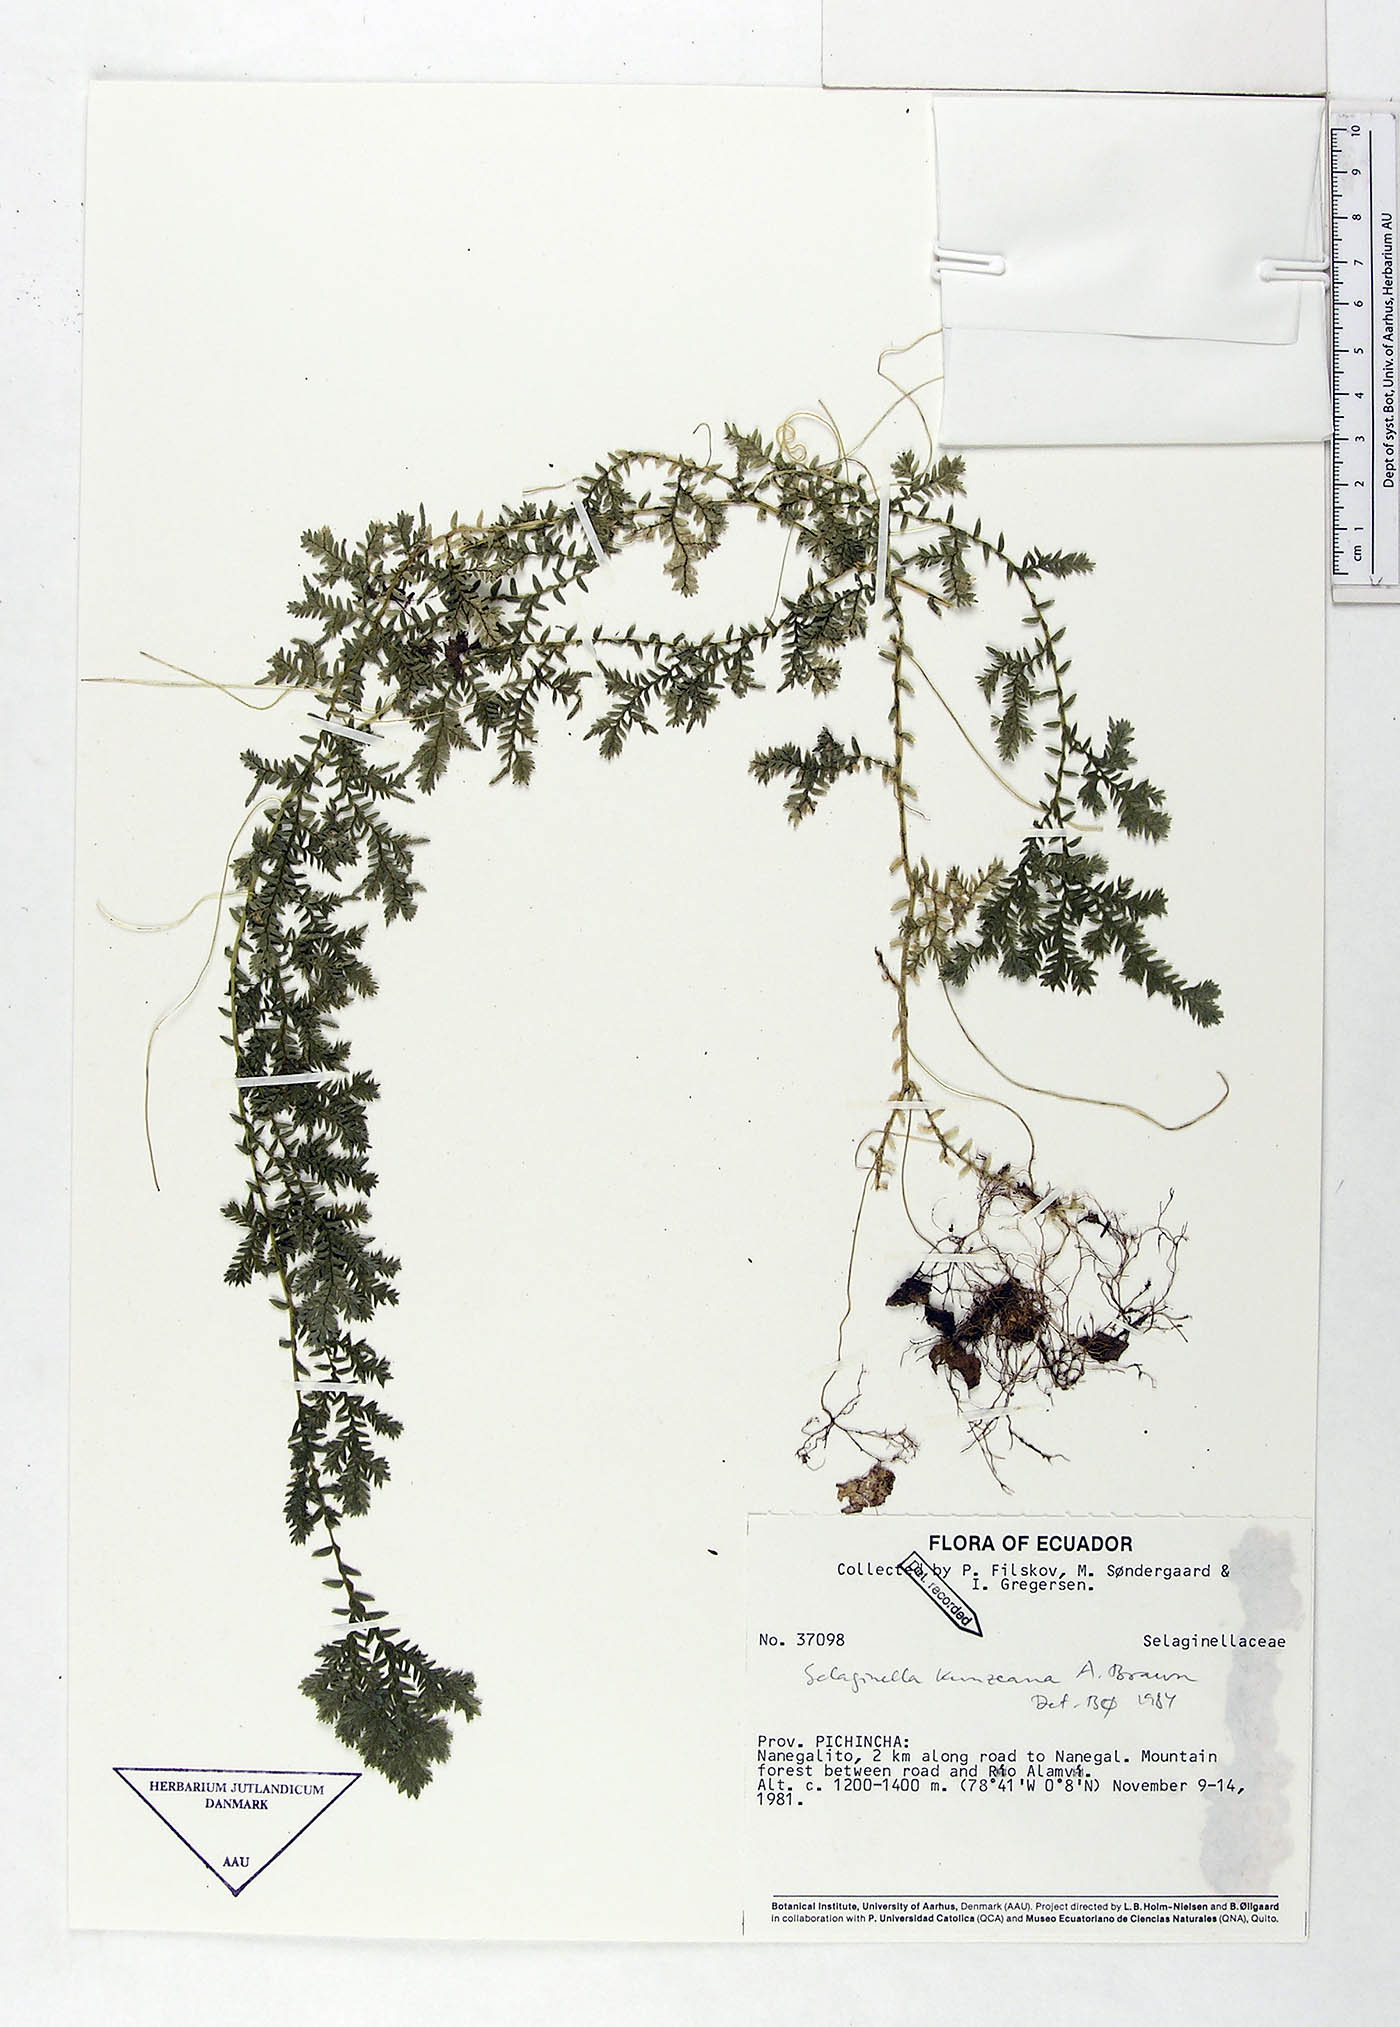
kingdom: Plantae
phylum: Tracheophyta
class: Lycopodiopsida
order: Selaginellales
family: Selaginellaceae
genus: Selaginella
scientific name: Selaginella kunzeana
